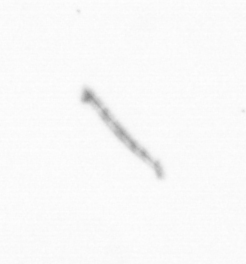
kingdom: Chromista
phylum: Ochrophyta
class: Bacillariophyceae
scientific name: Bacillariophyceae
